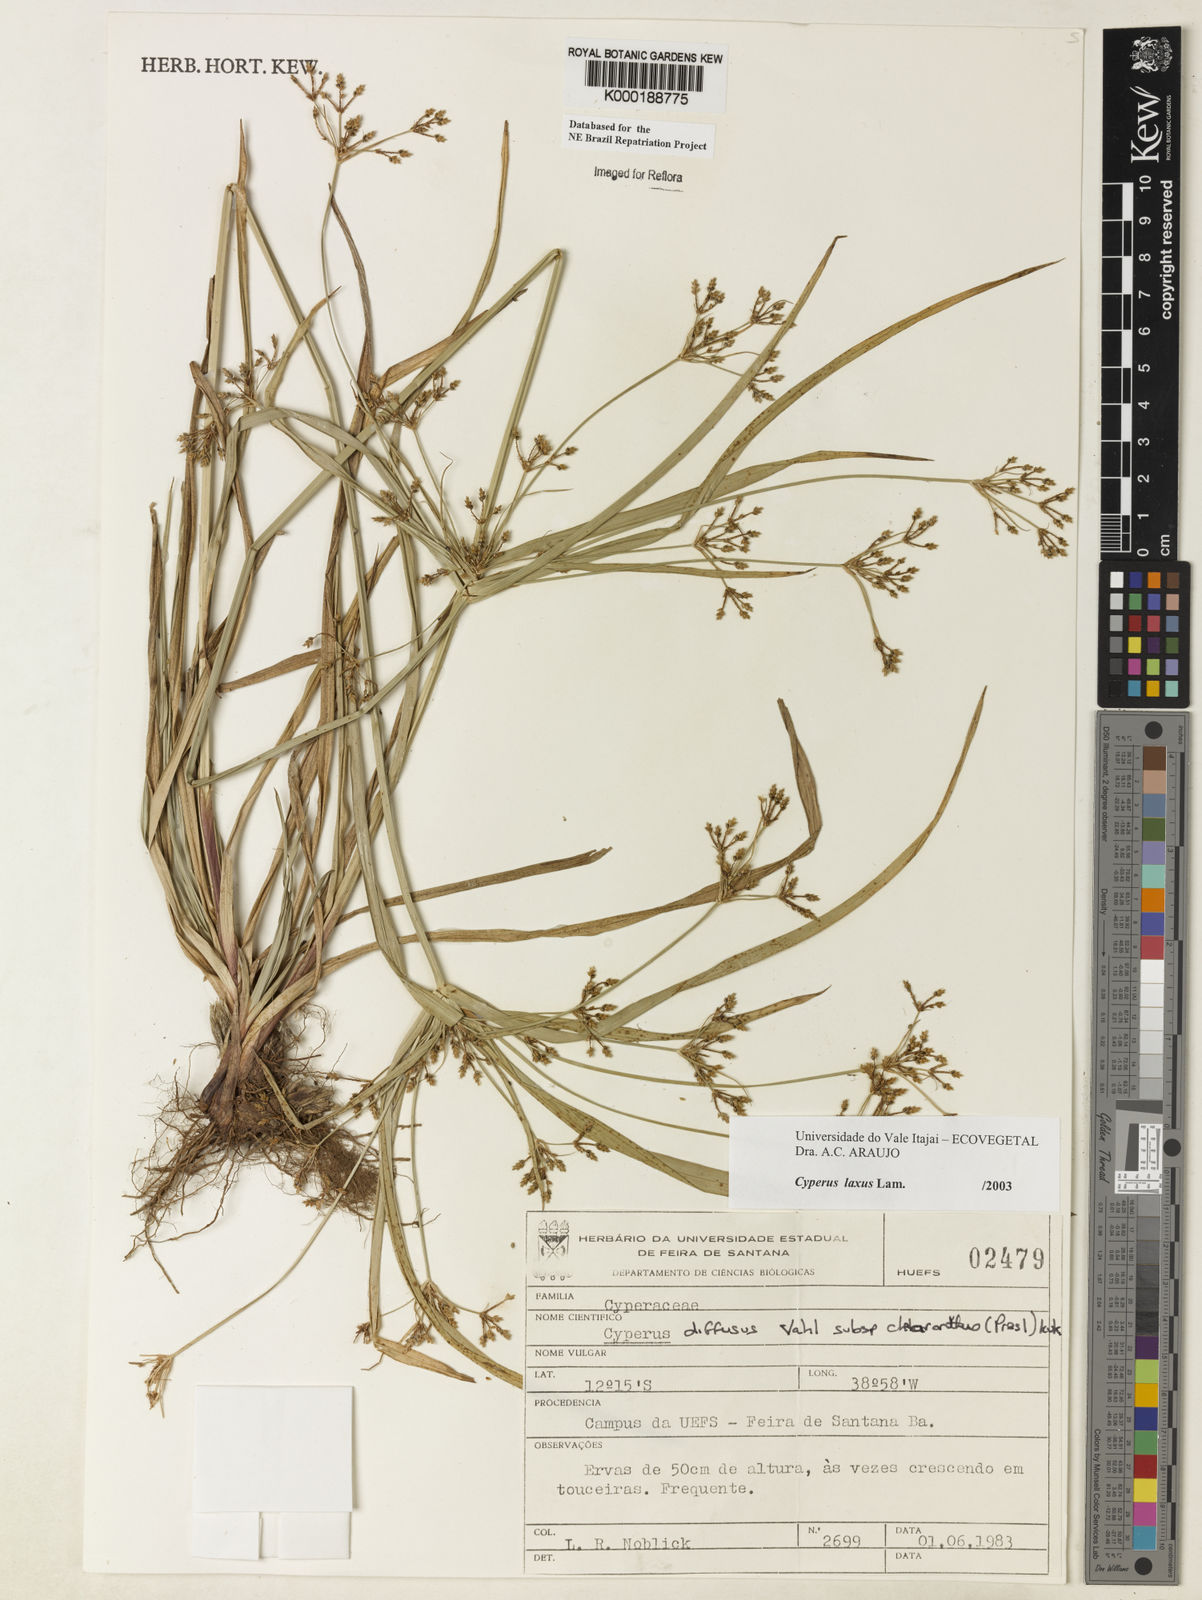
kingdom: Plantae
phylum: Tracheophyta
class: Liliopsida
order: Poales
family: Cyperaceae
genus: Cyperus
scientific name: Cyperus laxus
